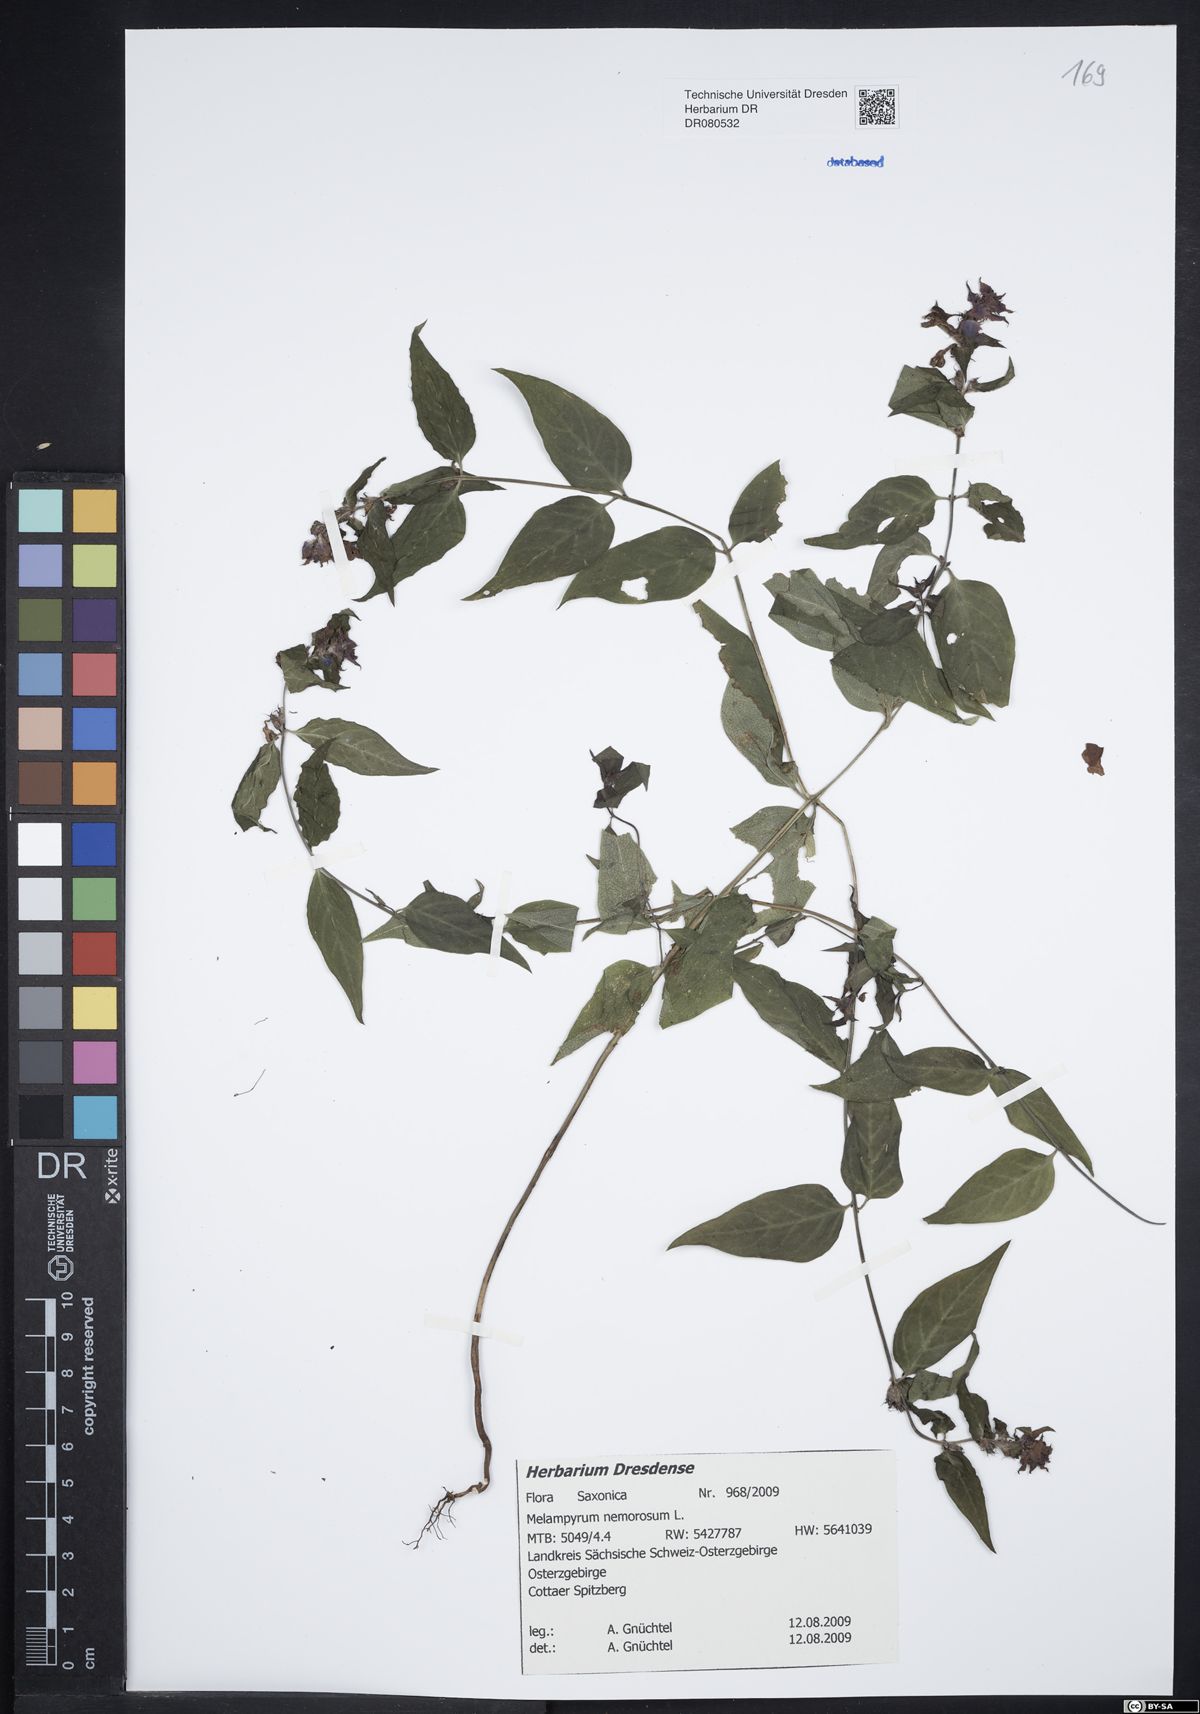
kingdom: Plantae
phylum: Tracheophyta
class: Magnoliopsida
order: Lamiales
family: Orobanchaceae
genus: Melampyrum
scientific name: Melampyrum nemorosum
